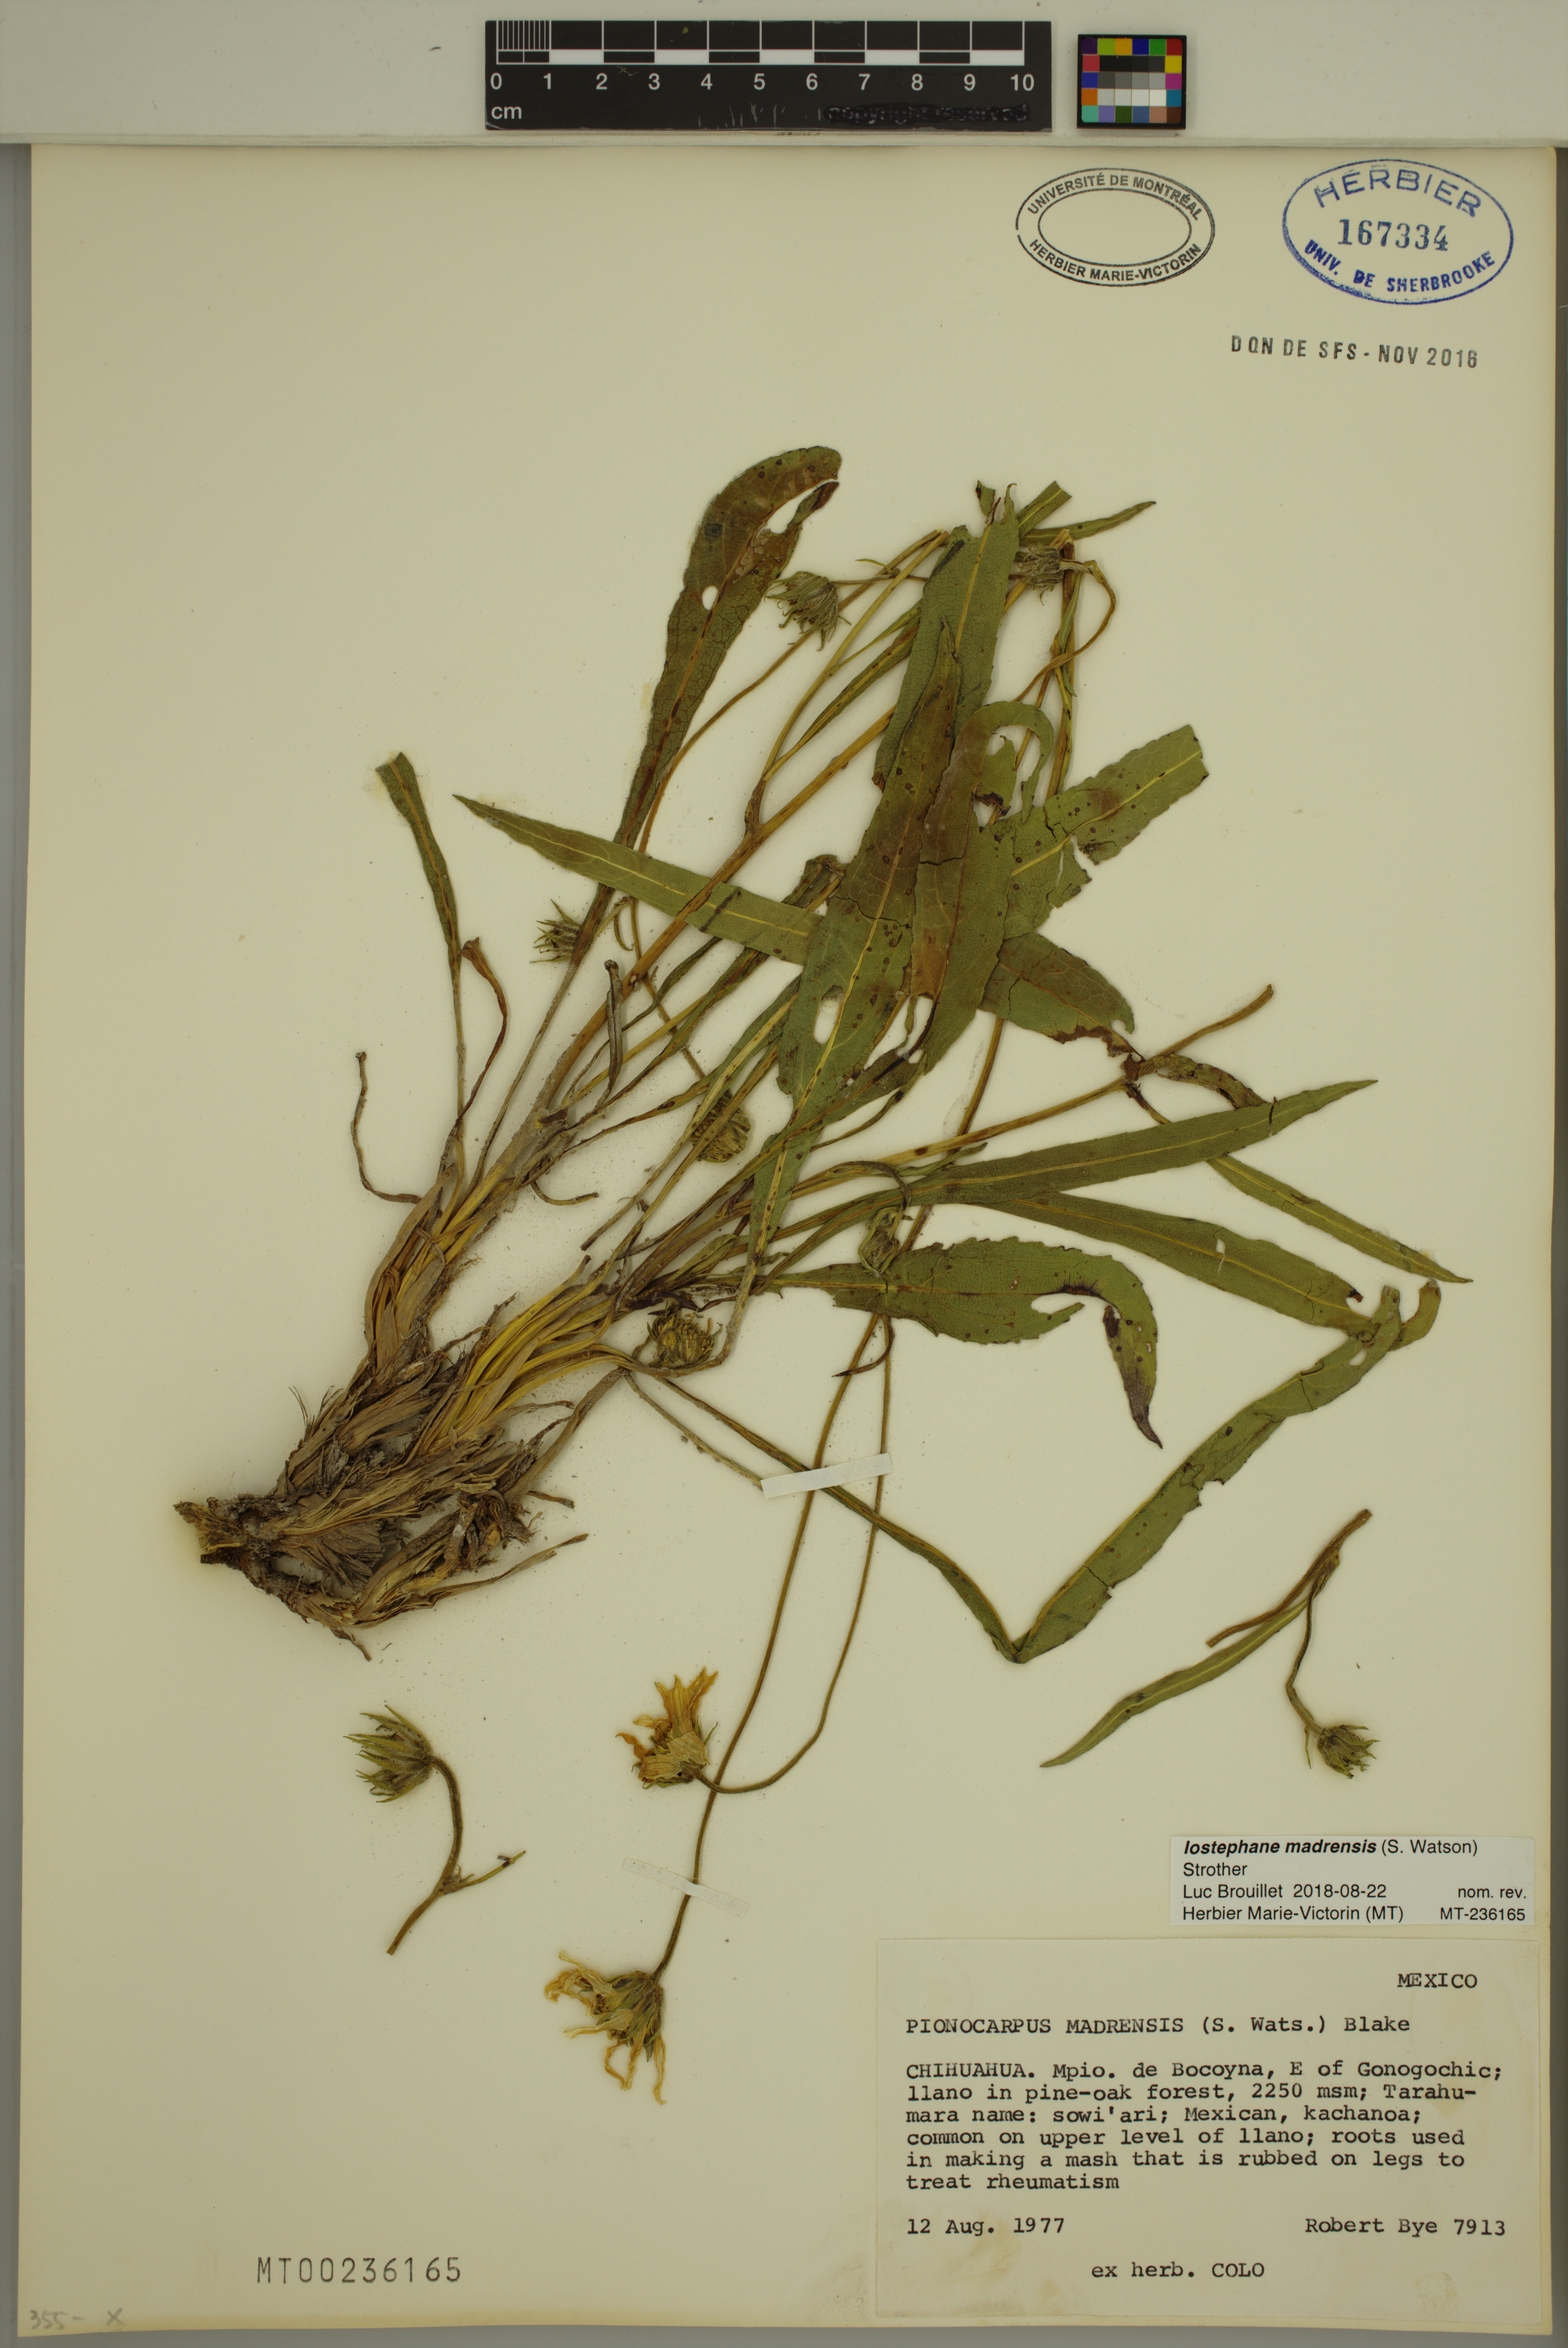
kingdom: Plantae
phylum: Tracheophyta
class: Magnoliopsida
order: Asterales
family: Asteraceae
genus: Iostephane
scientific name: Iostephane madrensis
